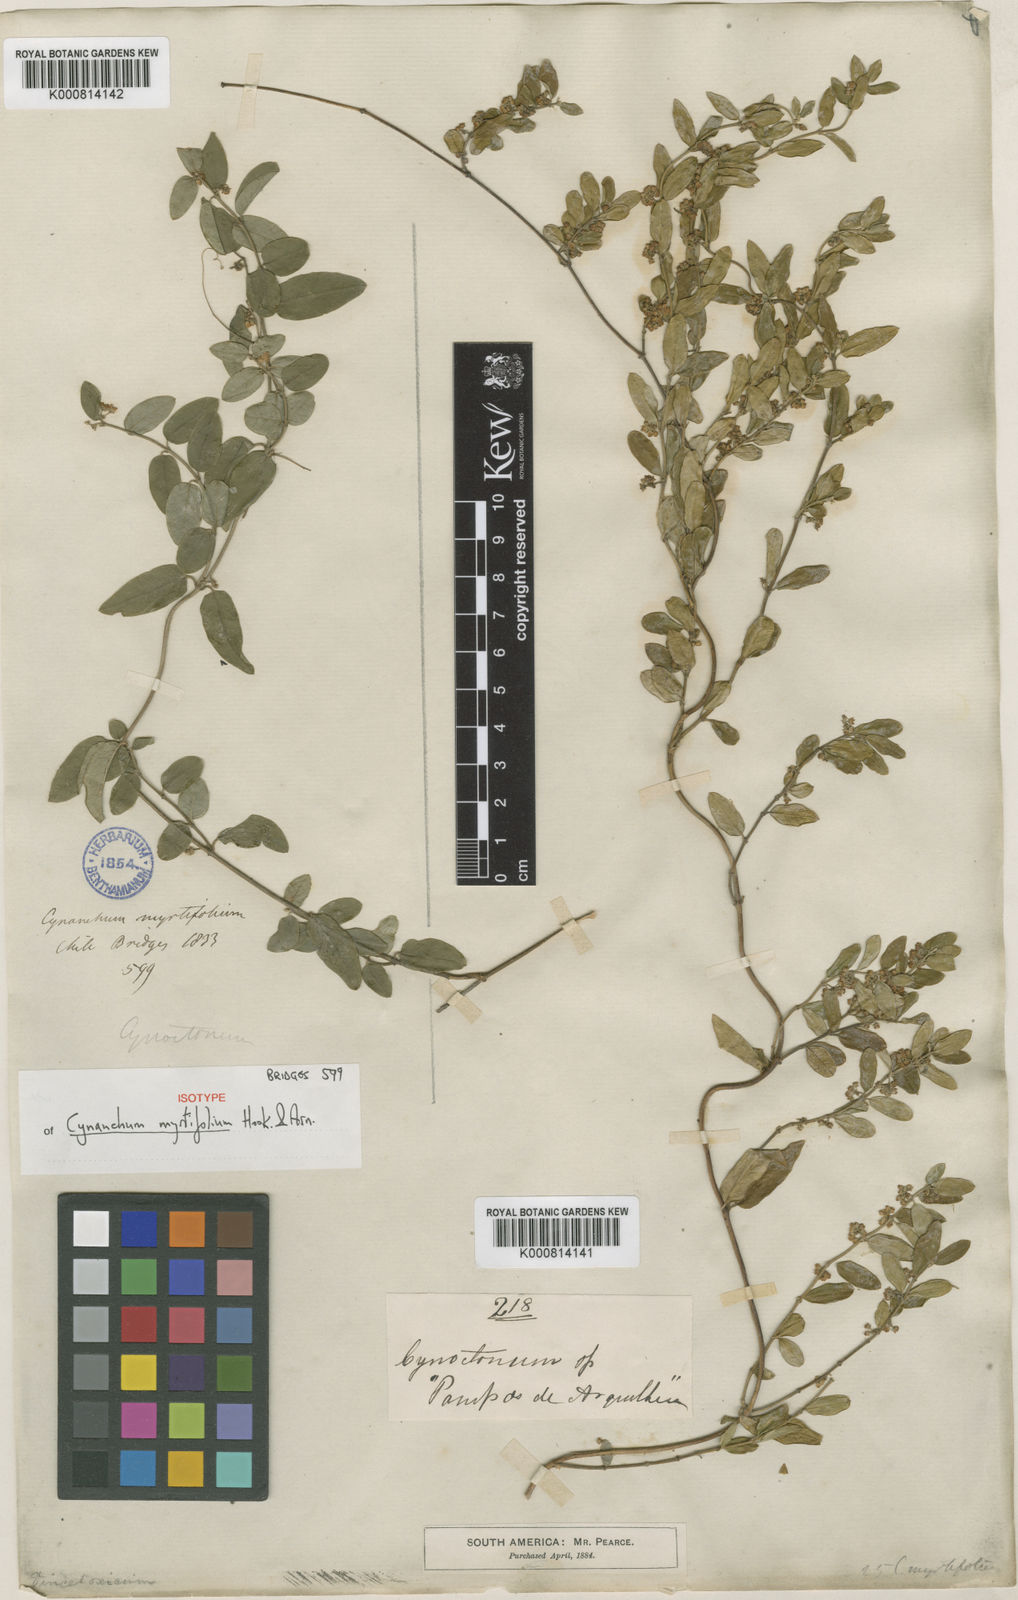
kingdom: Plantae
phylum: Tracheophyta
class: Magnoliopsida
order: Gentianales
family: Apocynaceae
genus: Diplolepis
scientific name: Diplolepis myrtifolia
